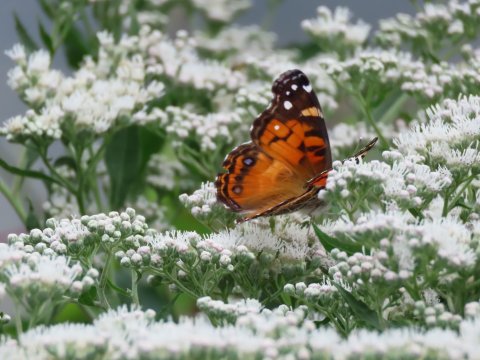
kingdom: Animalia
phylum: Arthropoda
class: Insecta
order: Lepidoptera
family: Nymphalidae
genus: Vanessa
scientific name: Vanessa virginiensis
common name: American Lady
